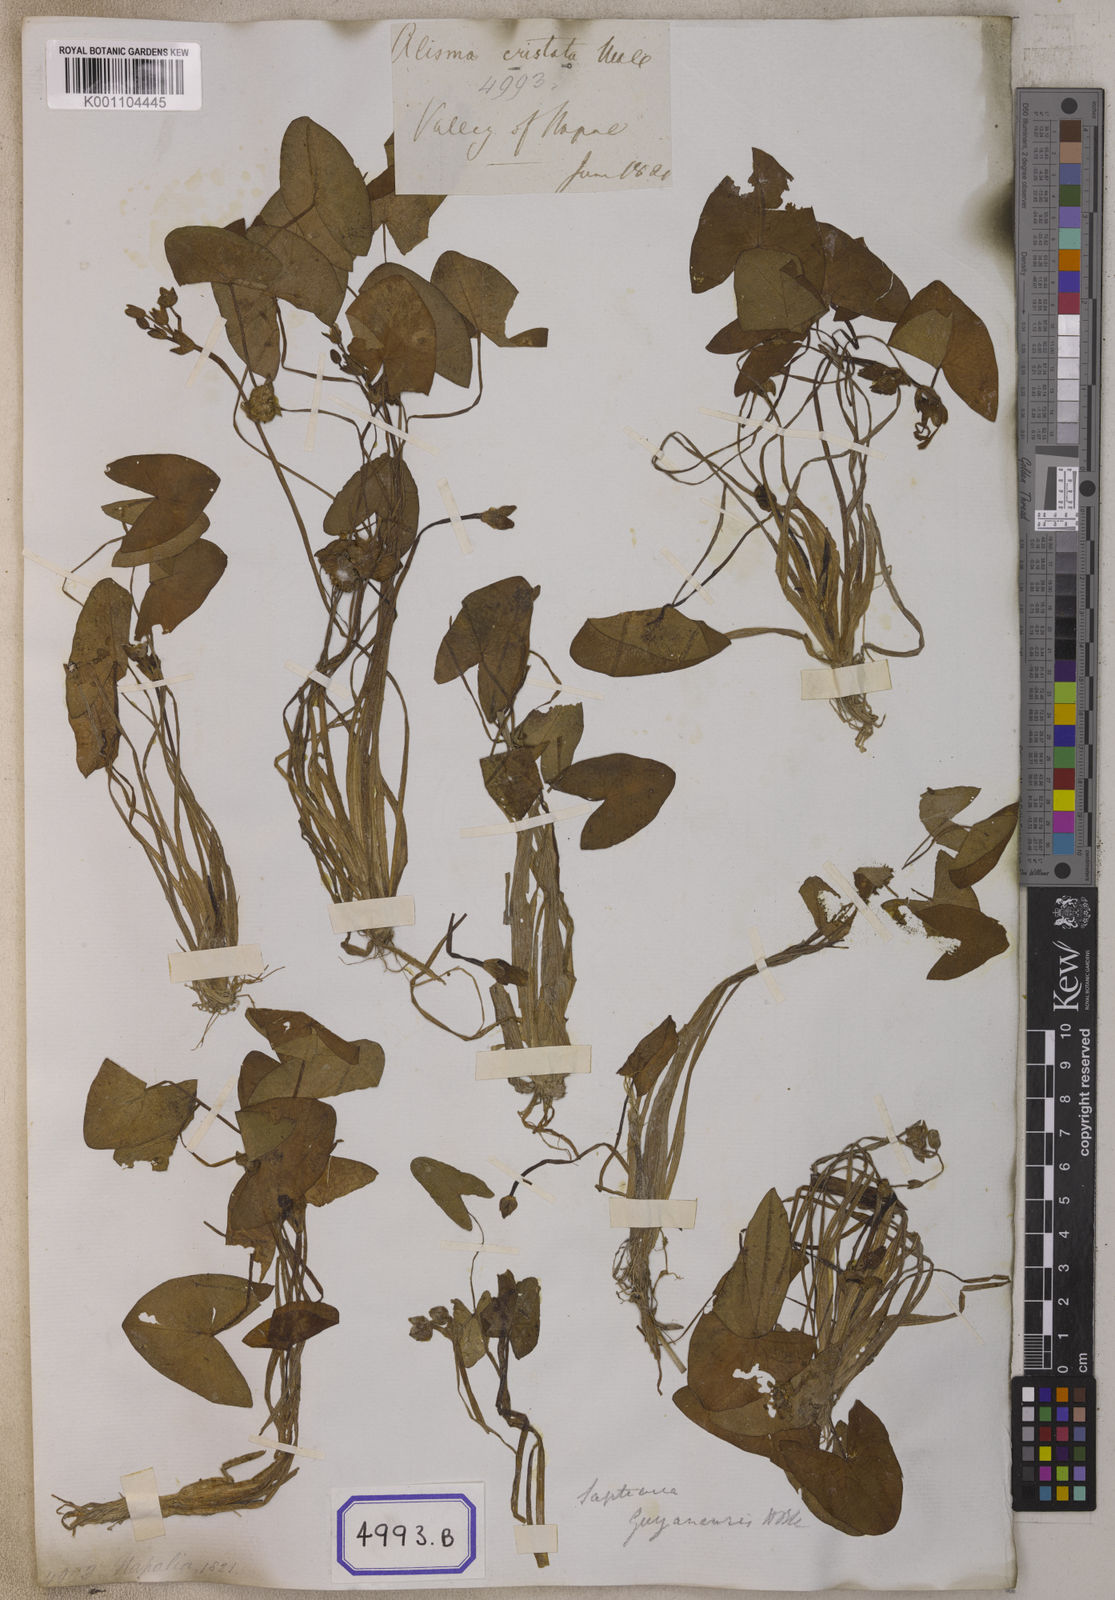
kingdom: Plantae
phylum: Tracheophyta
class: Liliopsida
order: Alismatales
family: Alismataceae
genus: Sagittaria
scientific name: Sagittaria guayanensis
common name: Guyanese arrowhead
